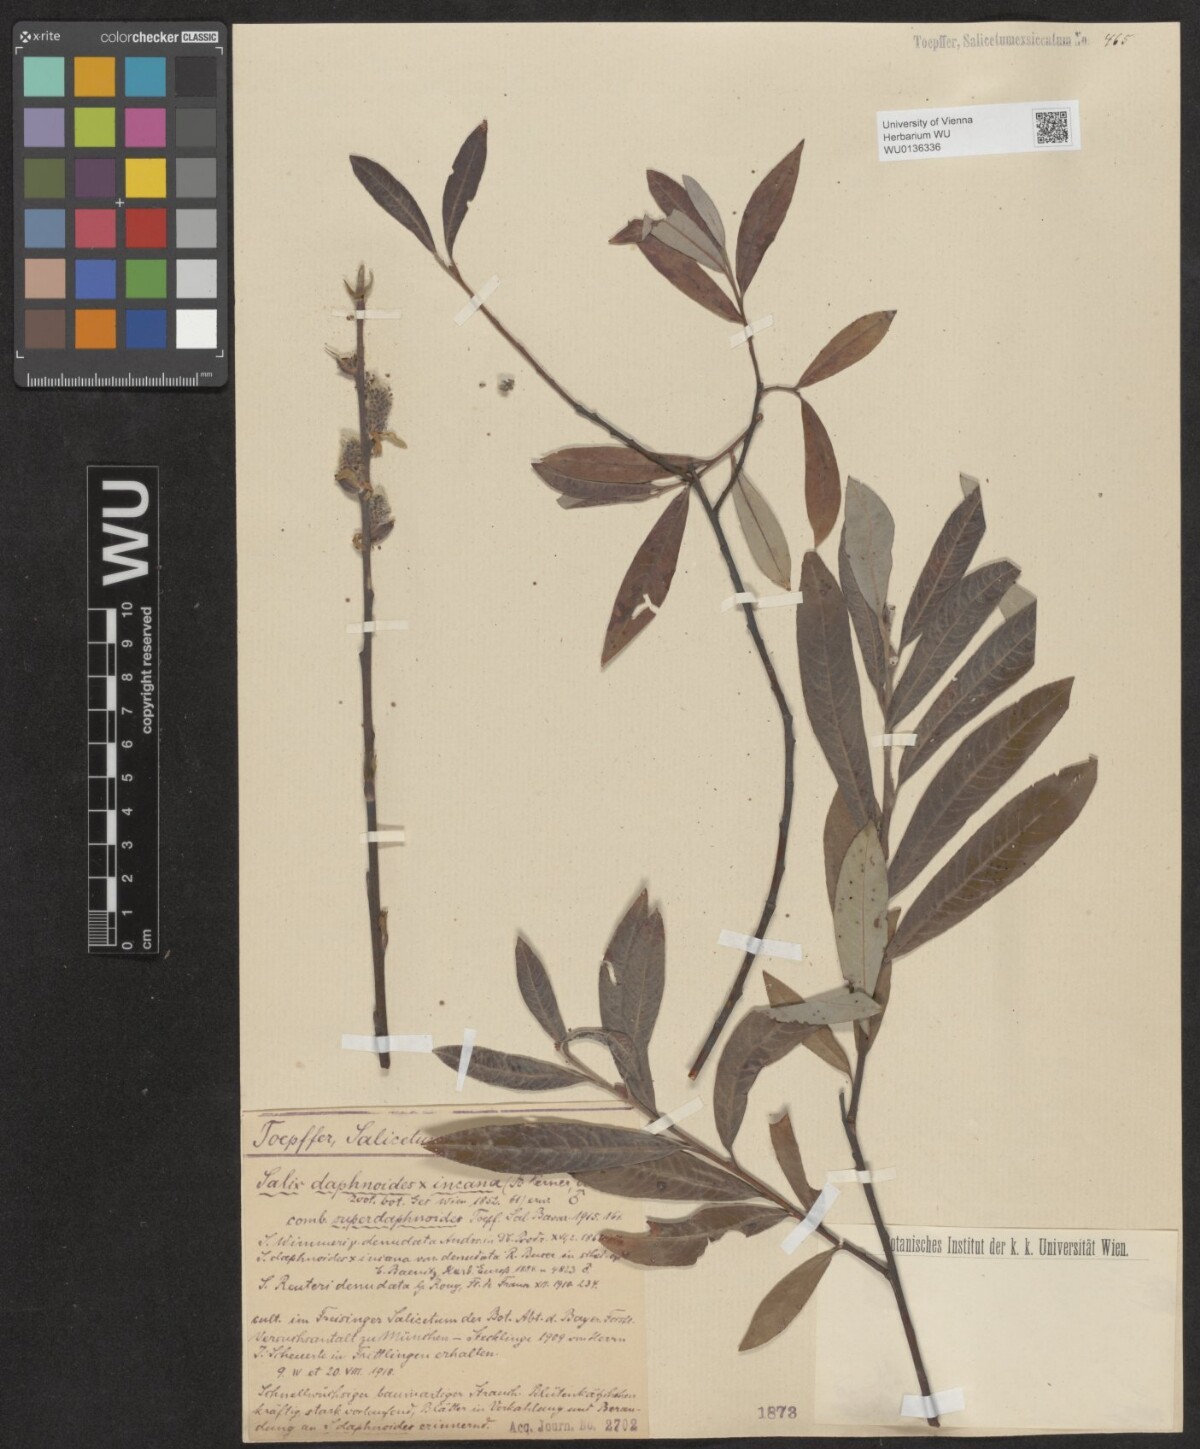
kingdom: Plantae
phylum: Tracheophyta
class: Magnoliopsida
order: Malpighiales
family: Salicaceae
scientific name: Salicaceae
